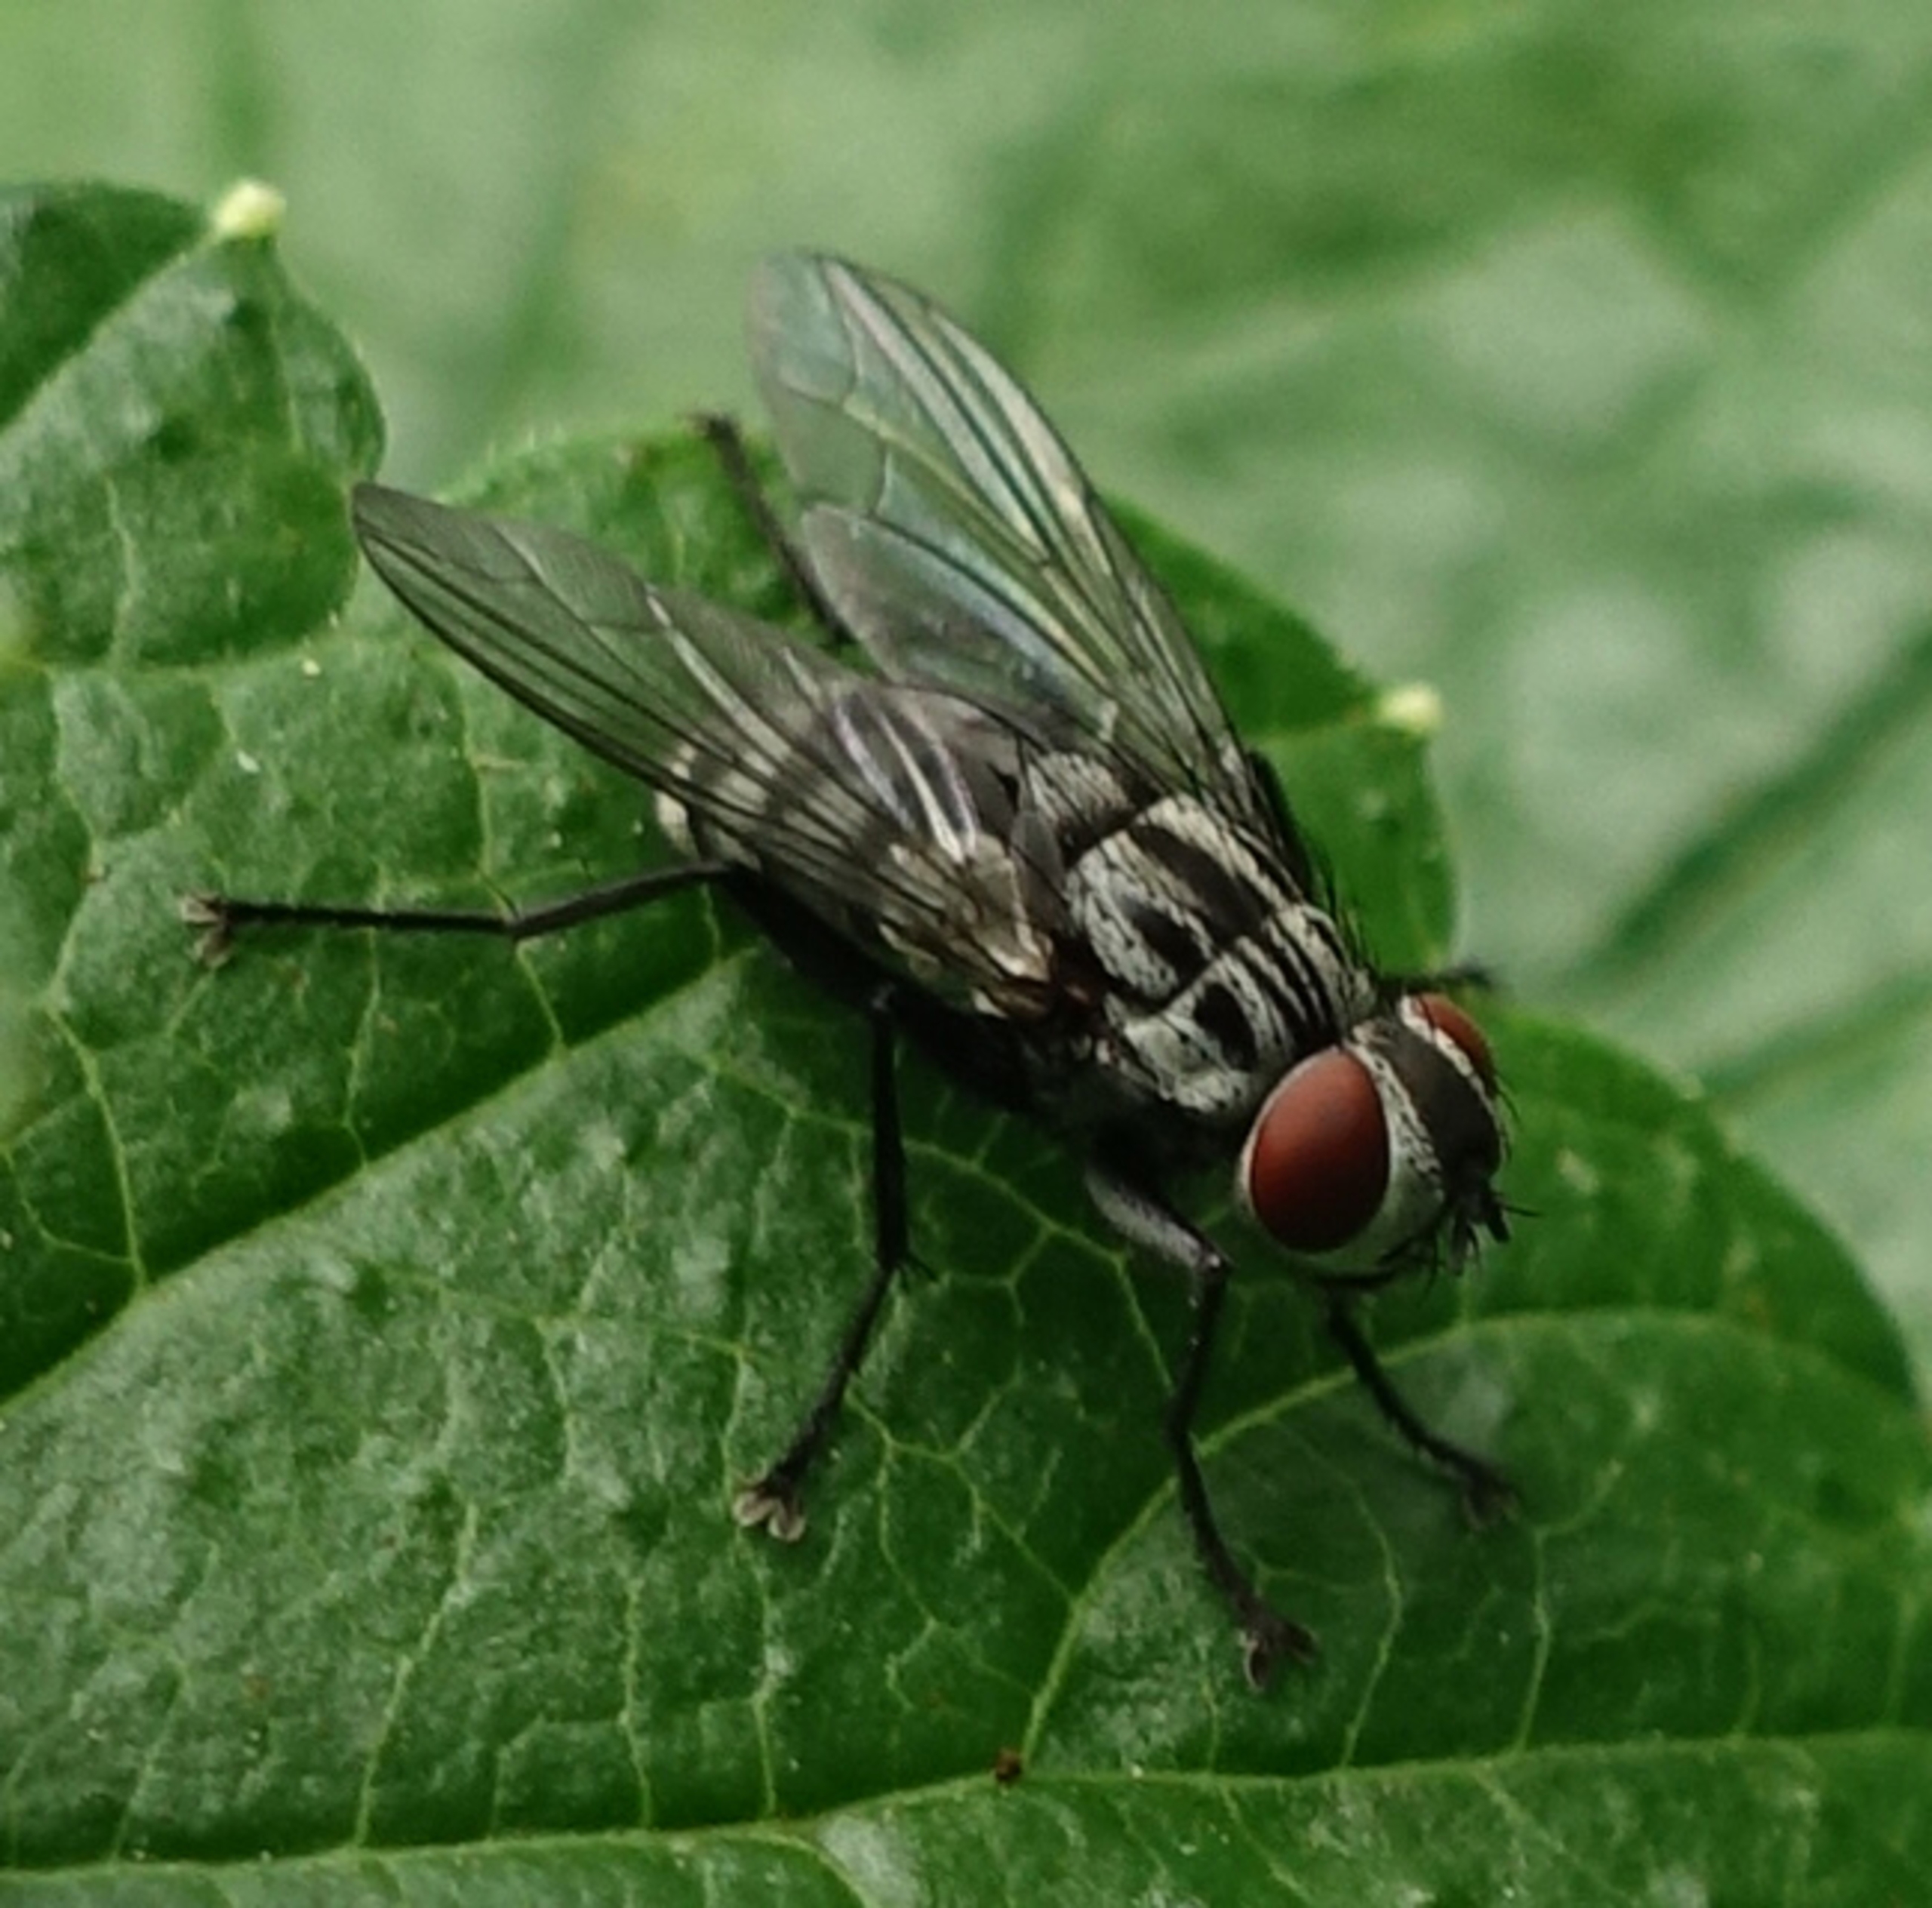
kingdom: Animalia
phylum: Arthropoda
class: Insecta
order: Diptera
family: Sarcophagidae
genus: Amobia
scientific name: Amobia signata
